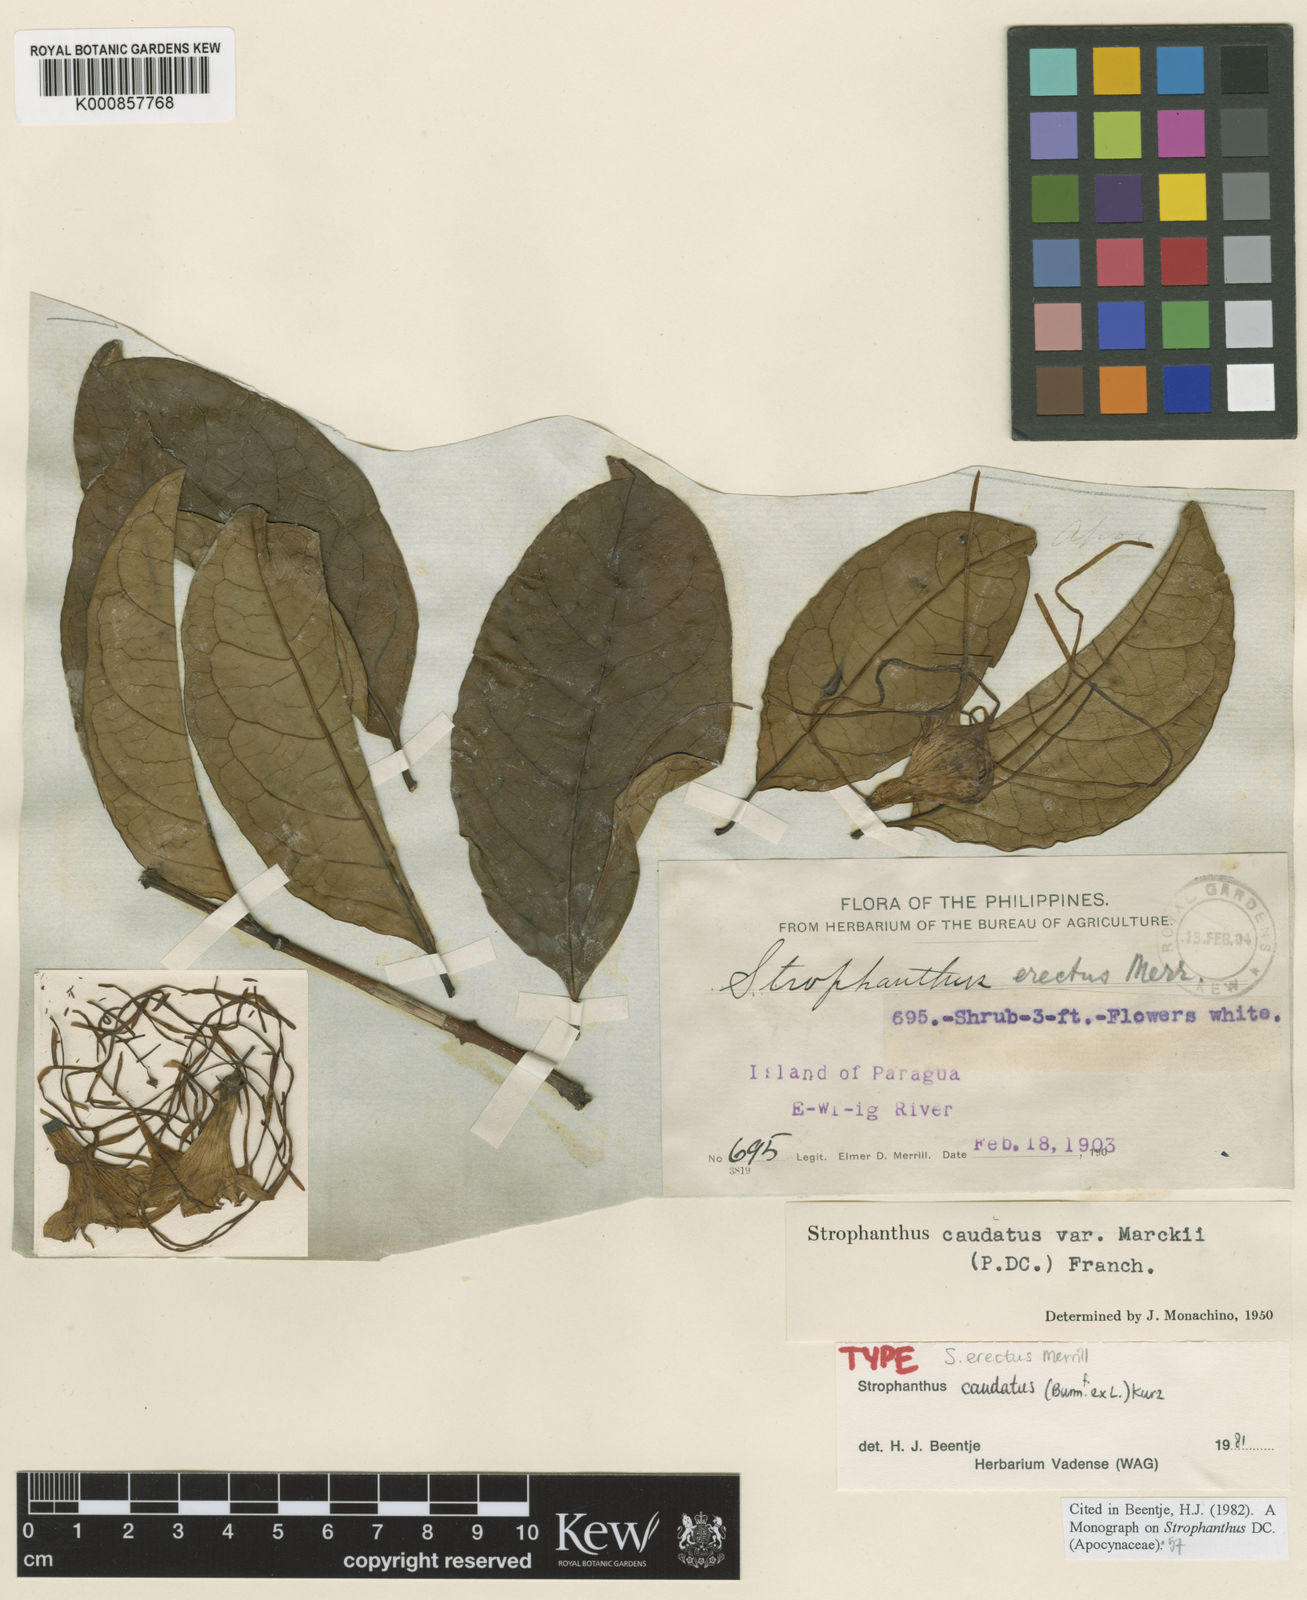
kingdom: Plantae
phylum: Tracheophyta
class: Magnoliopsida
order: Gentianales
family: Apocynaceae
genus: Strophanthus
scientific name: Strophanthus caudatus
